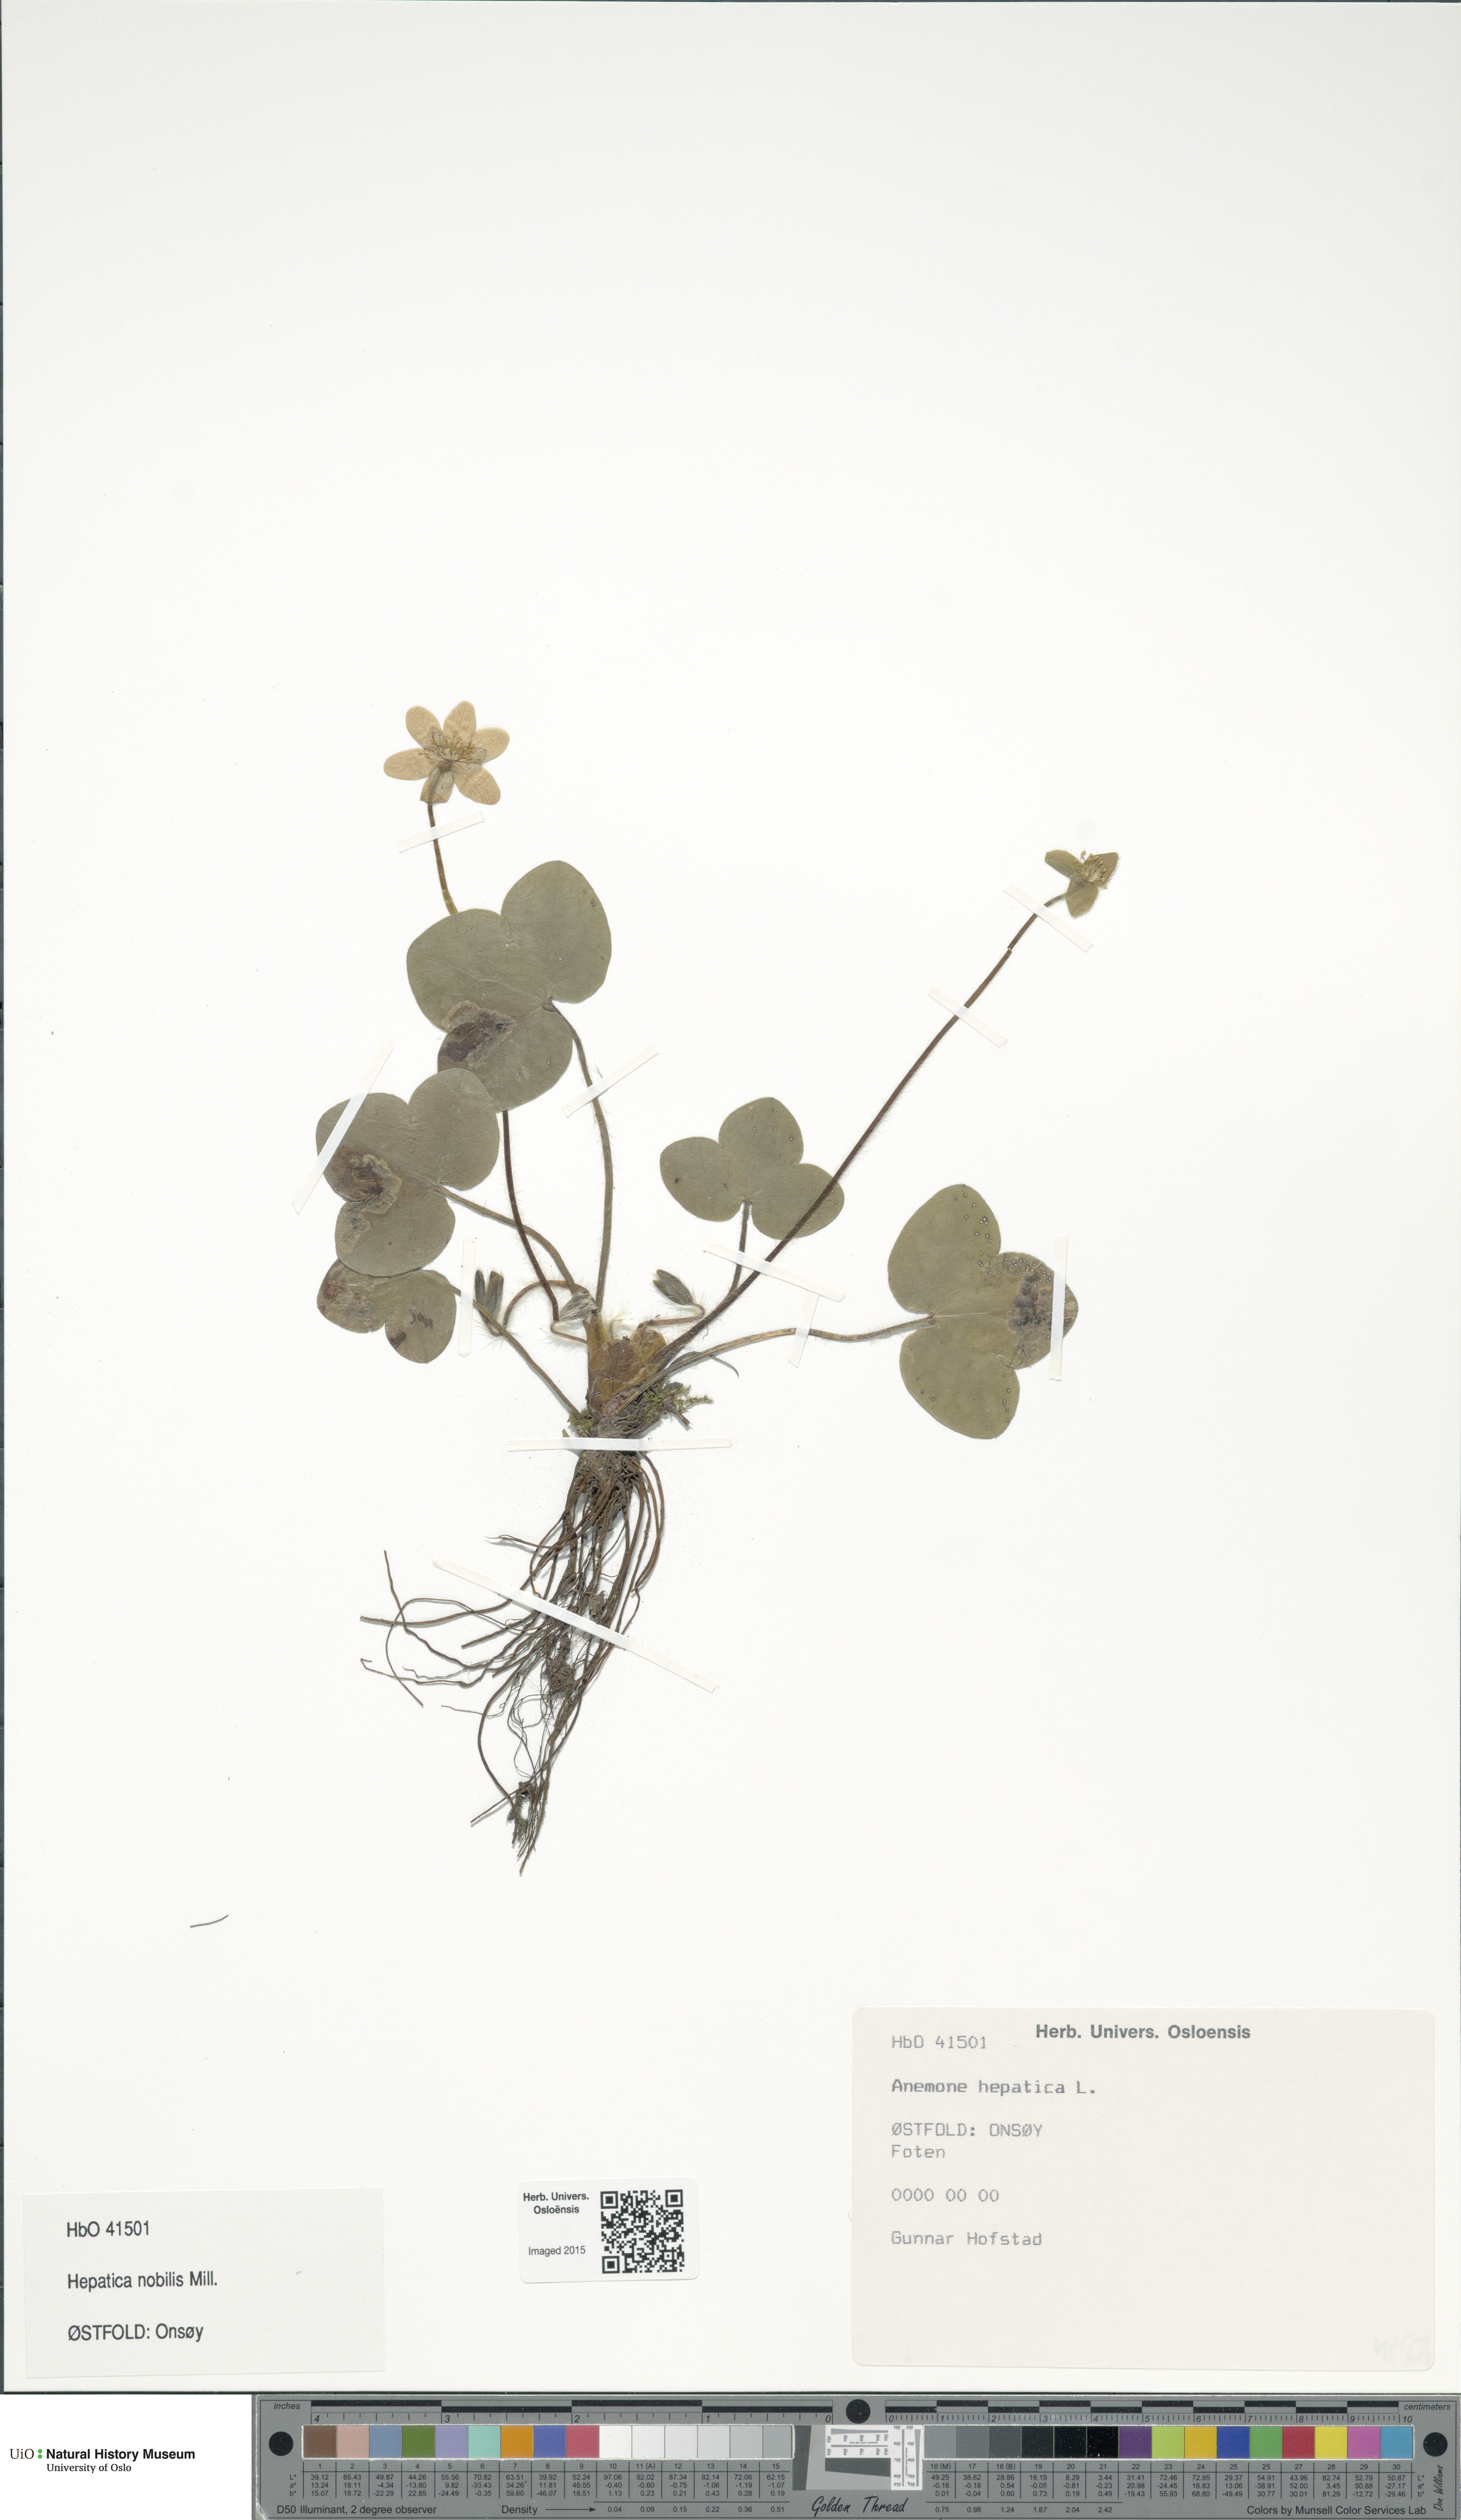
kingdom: Plantae
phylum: Tracheophyta
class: Magnoliopsida
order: Ranunculales
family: Ranunculaceae
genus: Hepatica
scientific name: Hepatica nobilis
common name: Liverleaf
